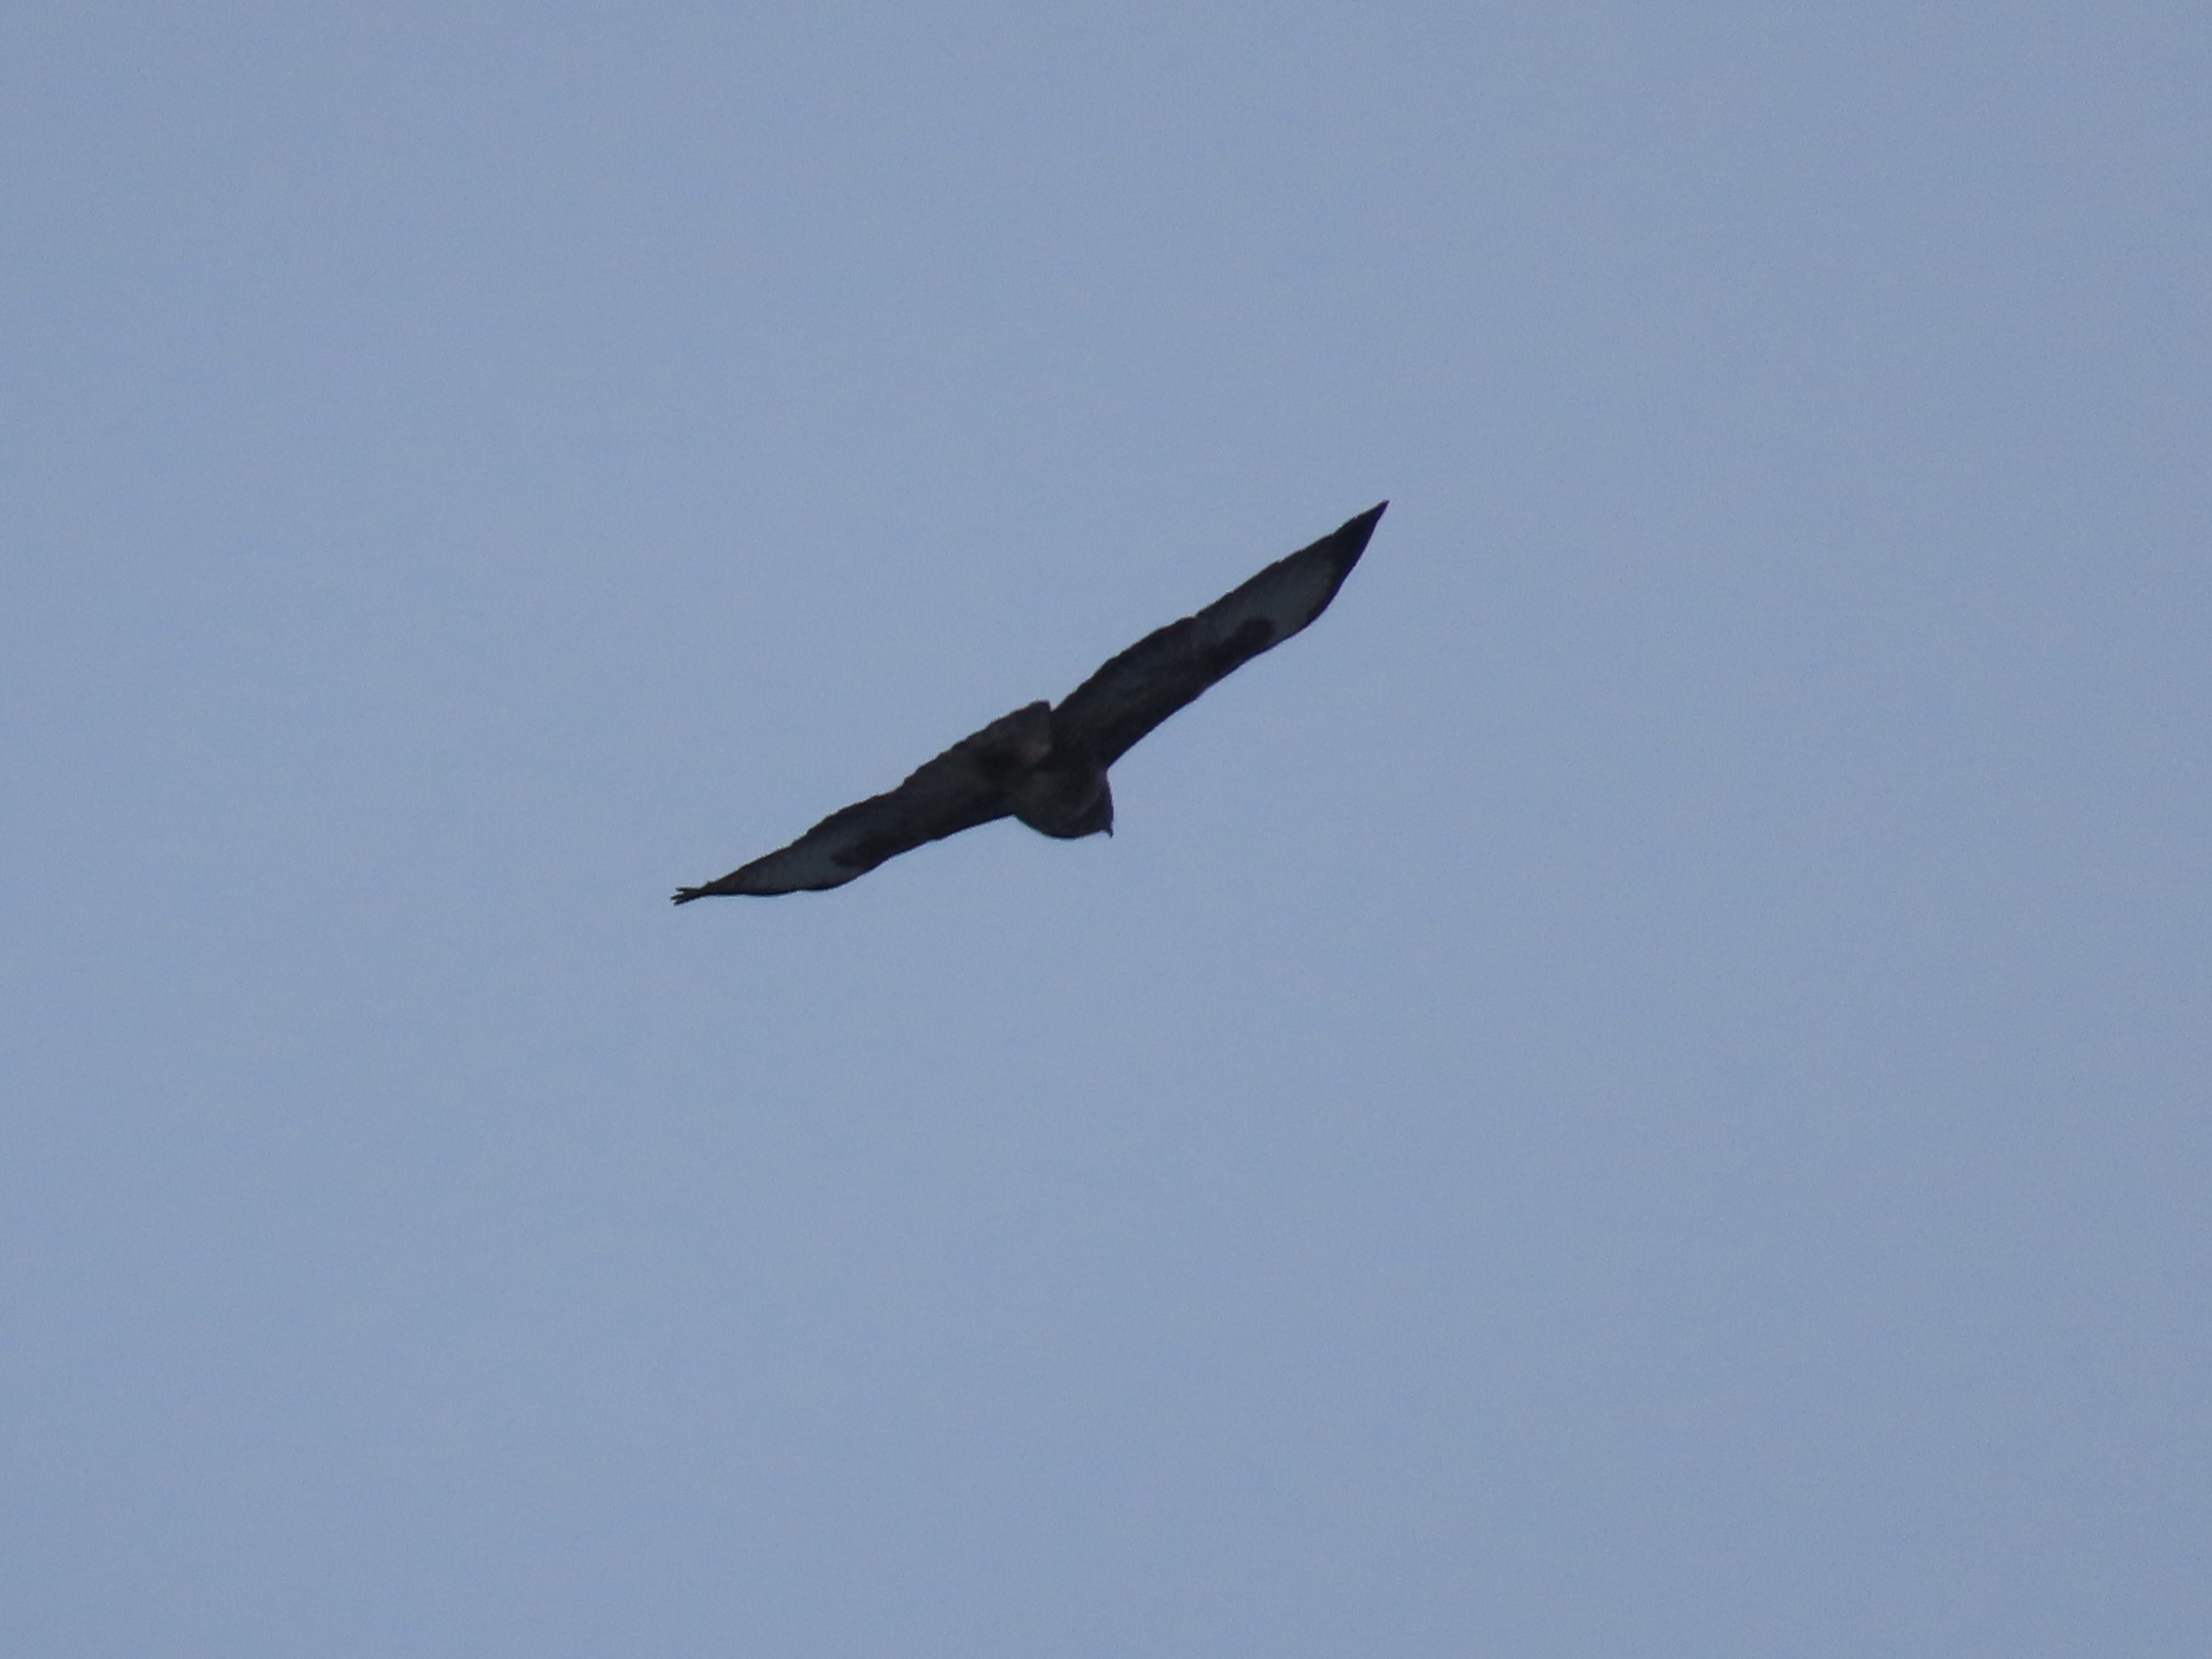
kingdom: Animalia
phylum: Chordata
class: Aves
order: Accipitriformes
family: Accipitridae
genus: Buteo
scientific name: Buteo buteo
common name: Musvåge
